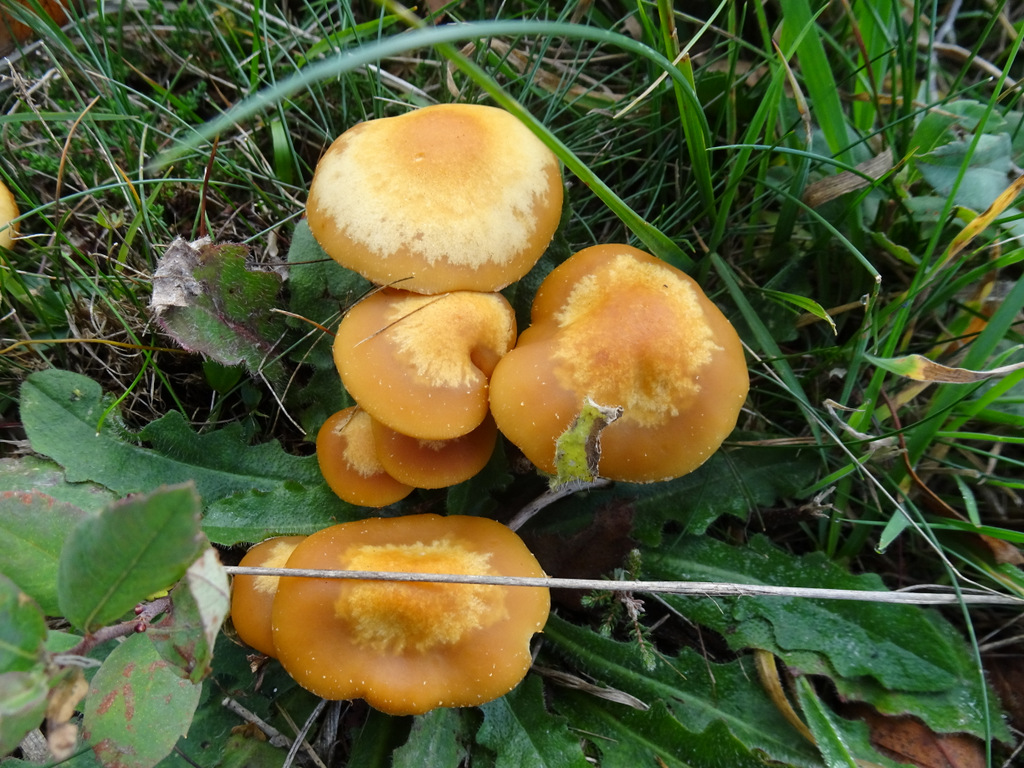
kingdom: Fungi
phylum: Basidiomycota
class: Agaricomycetes
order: Agaricales
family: Strophariaceae
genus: Kuehneromyces
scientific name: Kuehneromyces mutabilis
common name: foranderlig skælhat
